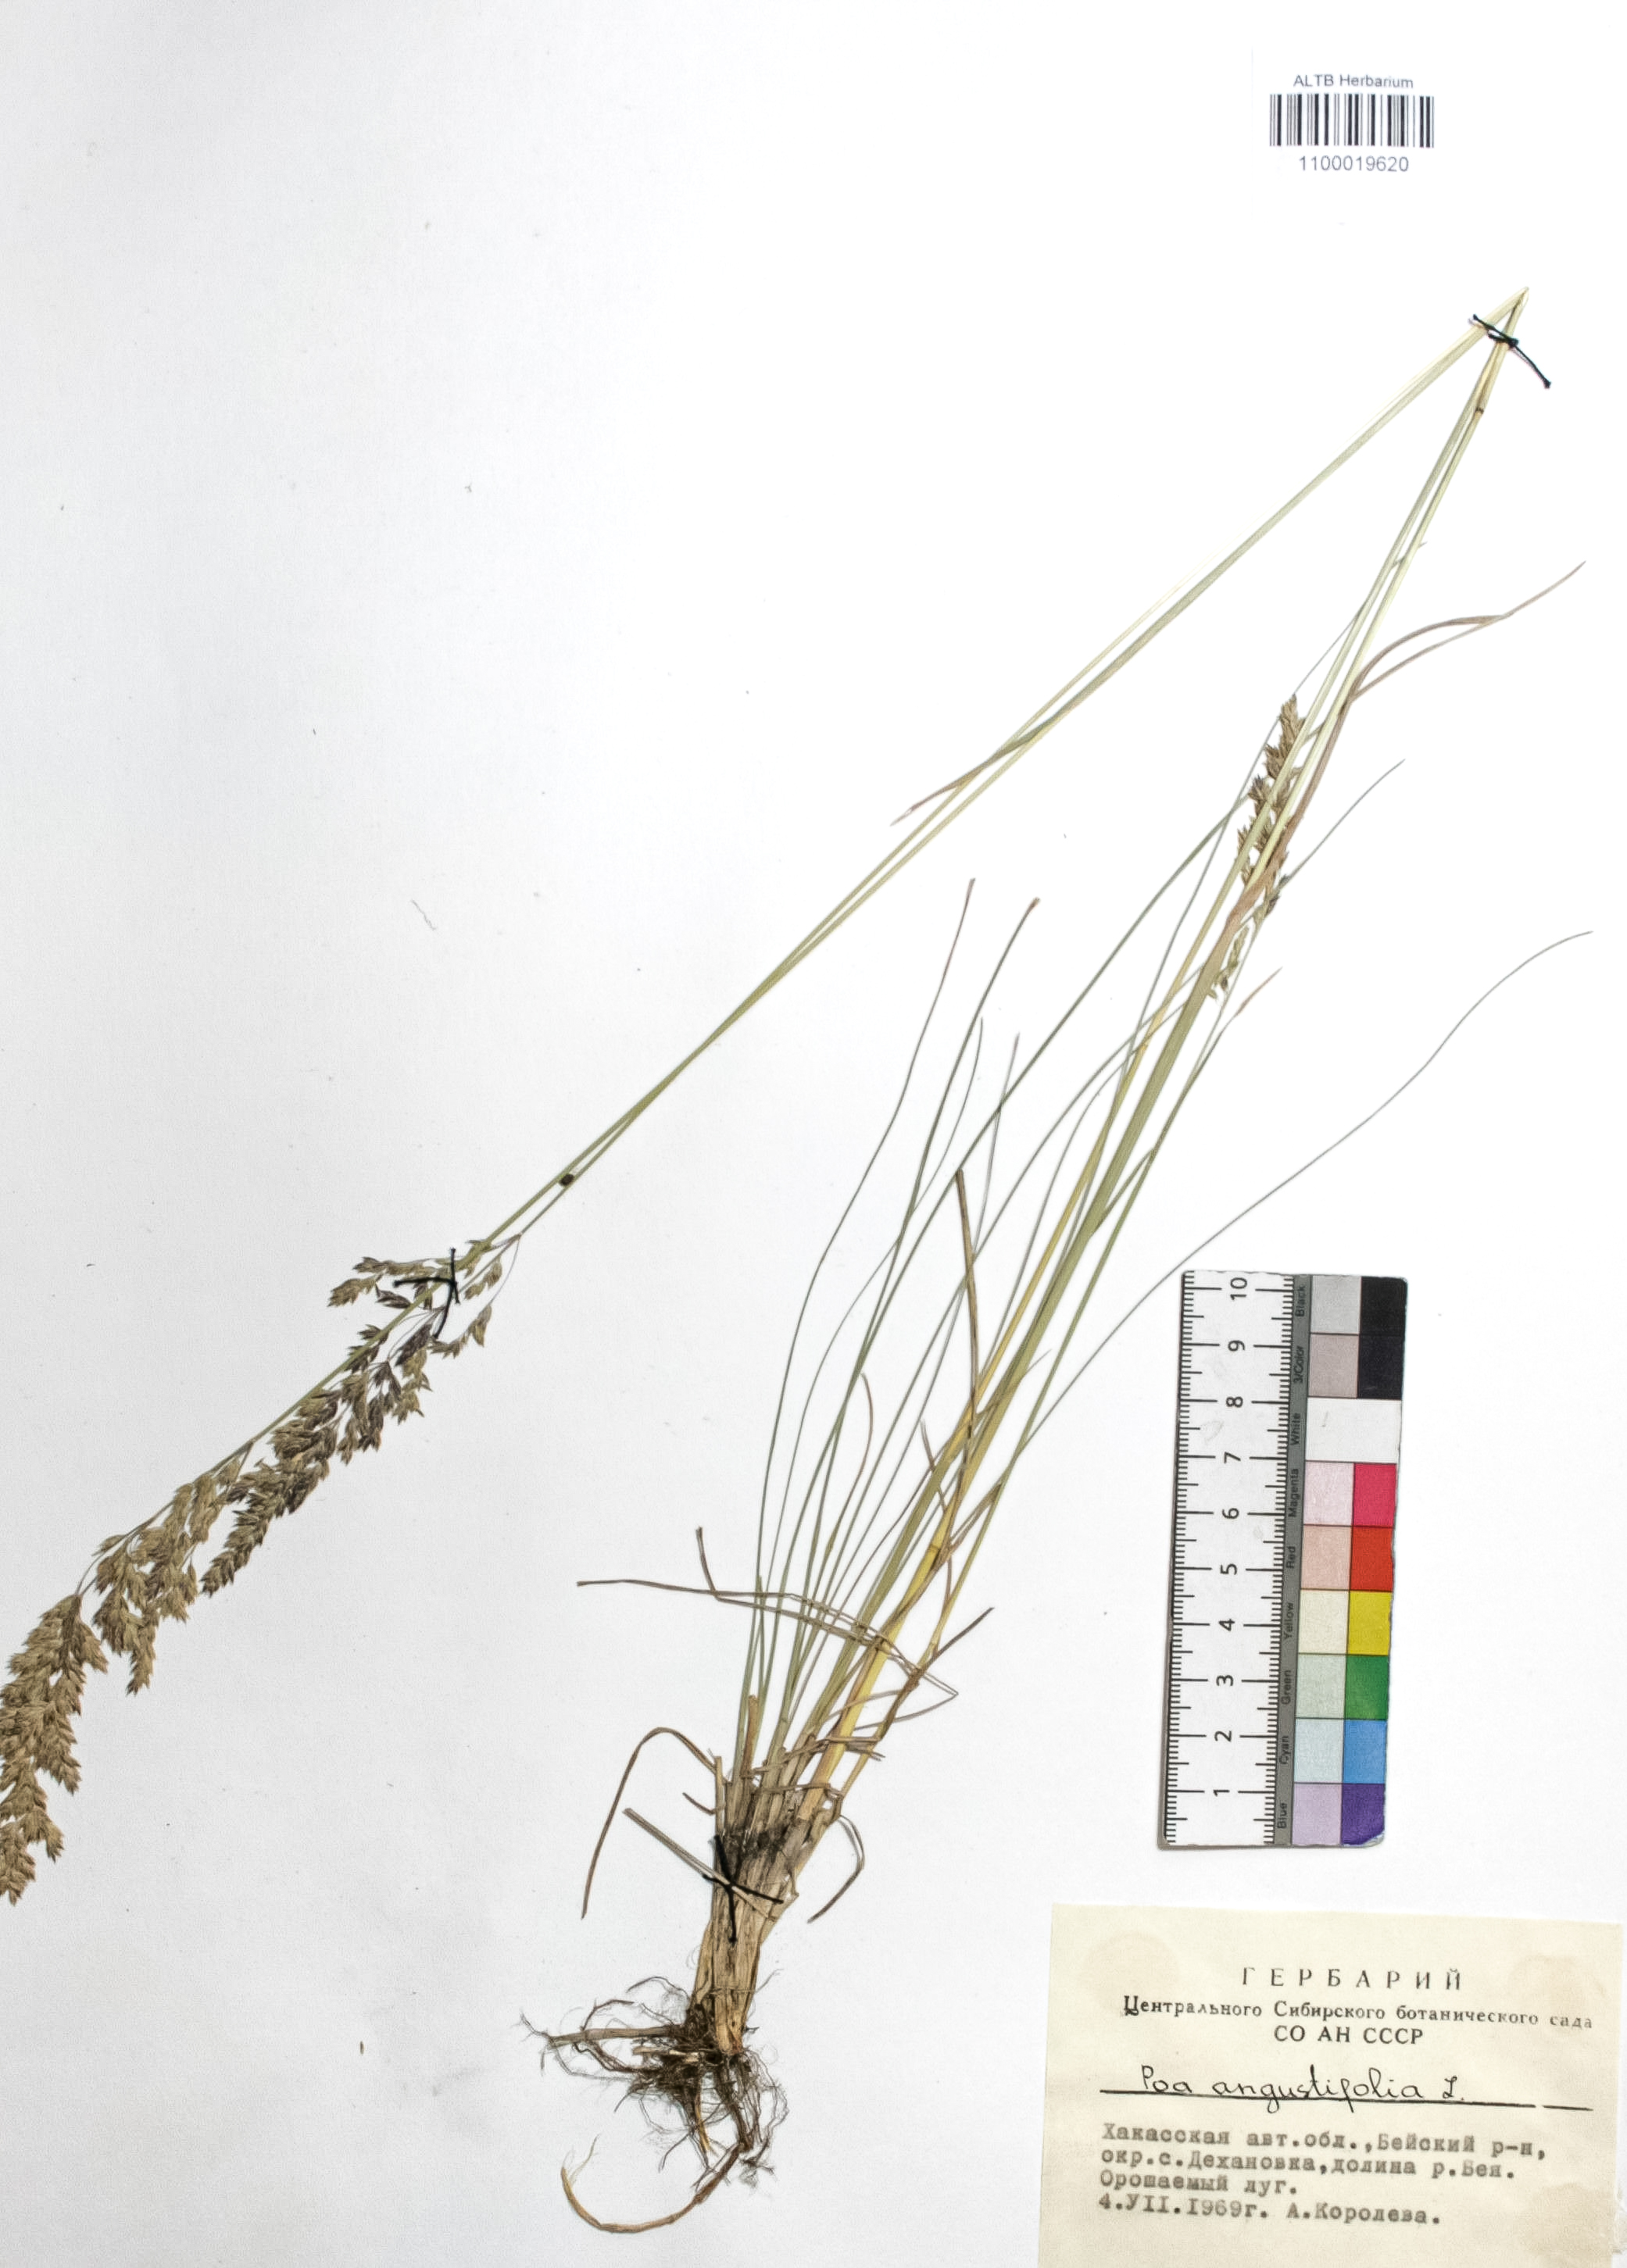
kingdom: Plantae
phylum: Tracheophyta
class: Liliopsida
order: Poales
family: Poaceae
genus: Poa
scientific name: Poa angustifolia
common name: Narrow-leaved meadow-grass
